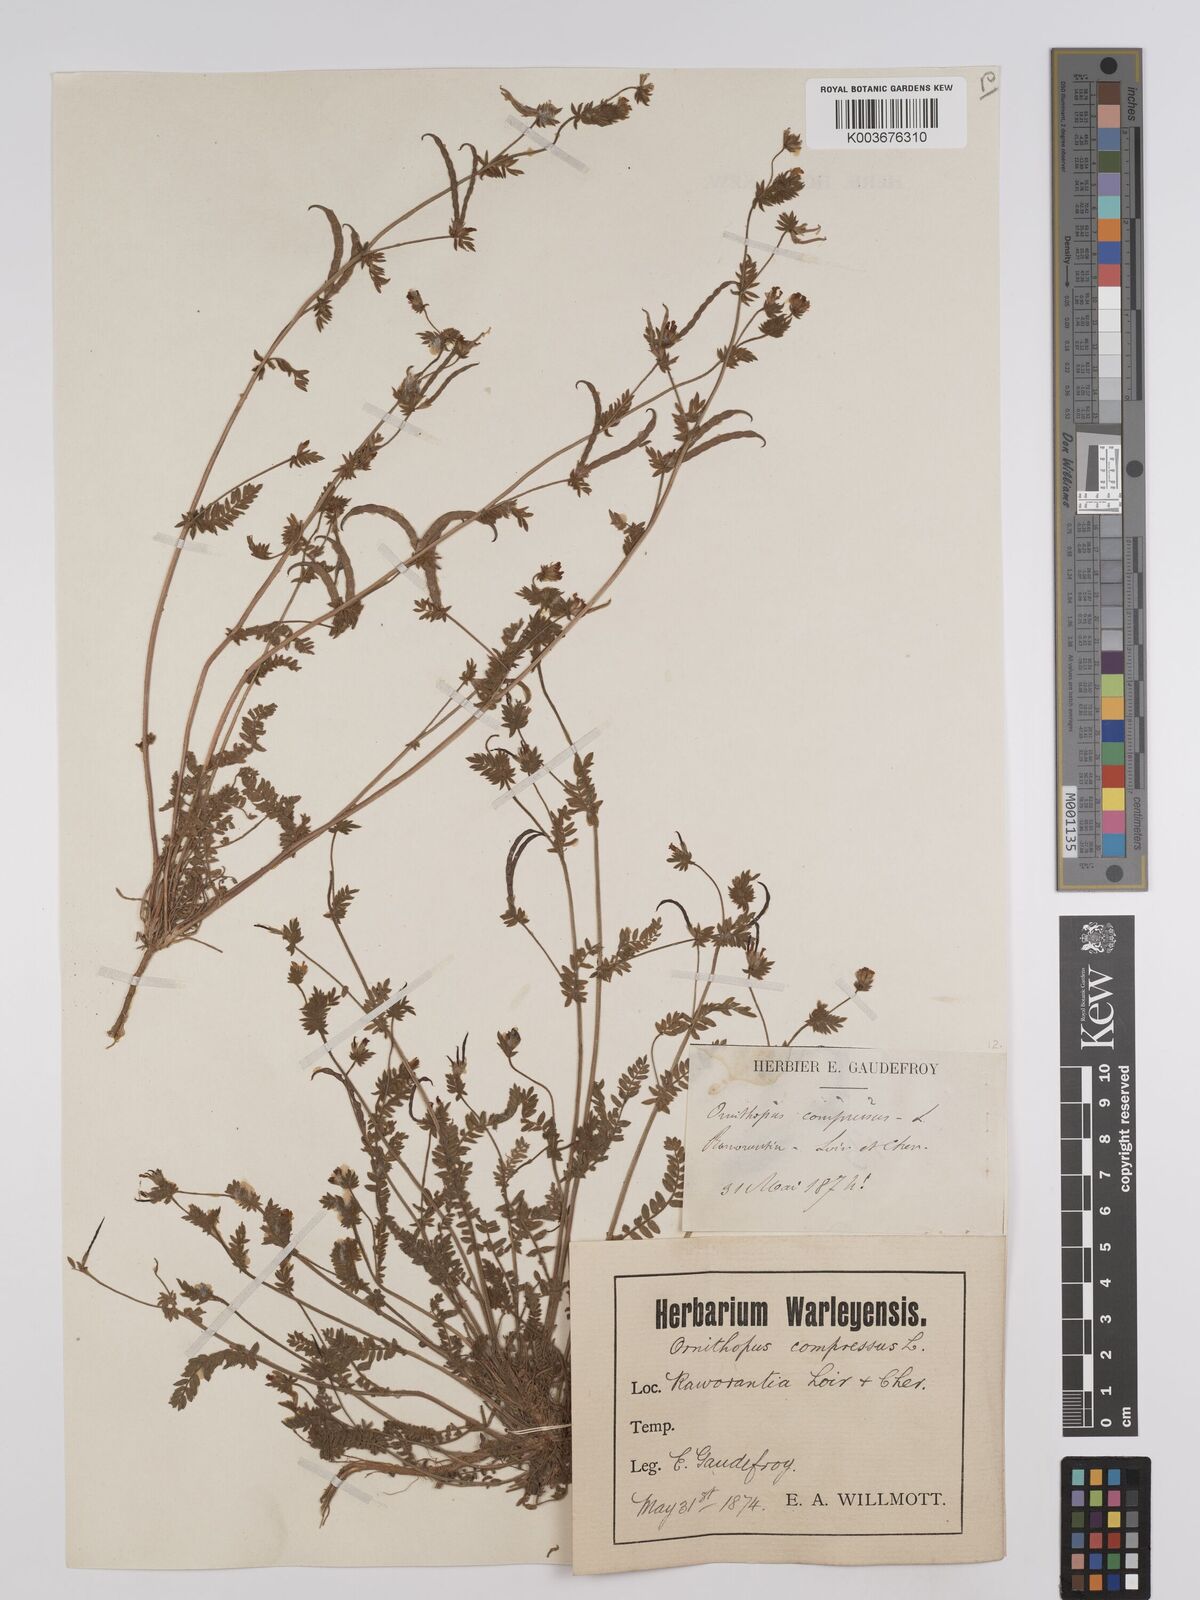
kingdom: Plantae
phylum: Tracheophyta
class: Magnoliopsida
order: Fabales
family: Fabaceae
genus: Ornithopus
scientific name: Ornithopus compressus
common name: Yellow serradella
